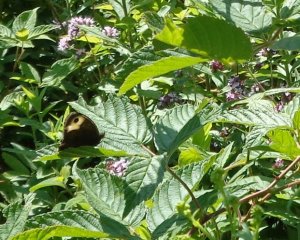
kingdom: Animalia
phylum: Arthropoda
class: Insecta
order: Lepidoptera
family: Nymphalidae
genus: Cercyonis
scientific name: Cercyonis pegala
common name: Common Wood-Nymph
